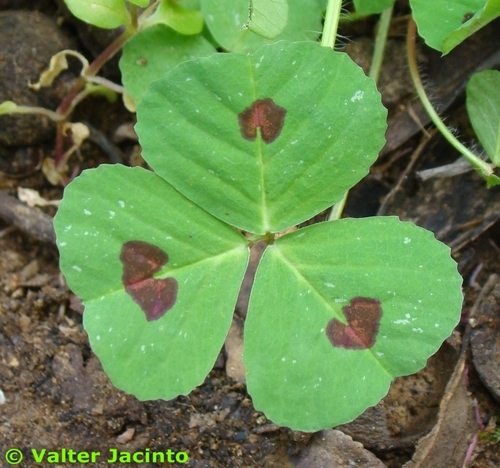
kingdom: Plantae
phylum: Tracheophyta
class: Magnoliopsida
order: Fabales
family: Fabaceae
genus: Medicago
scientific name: Medicago arabica
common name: Spotted medick
